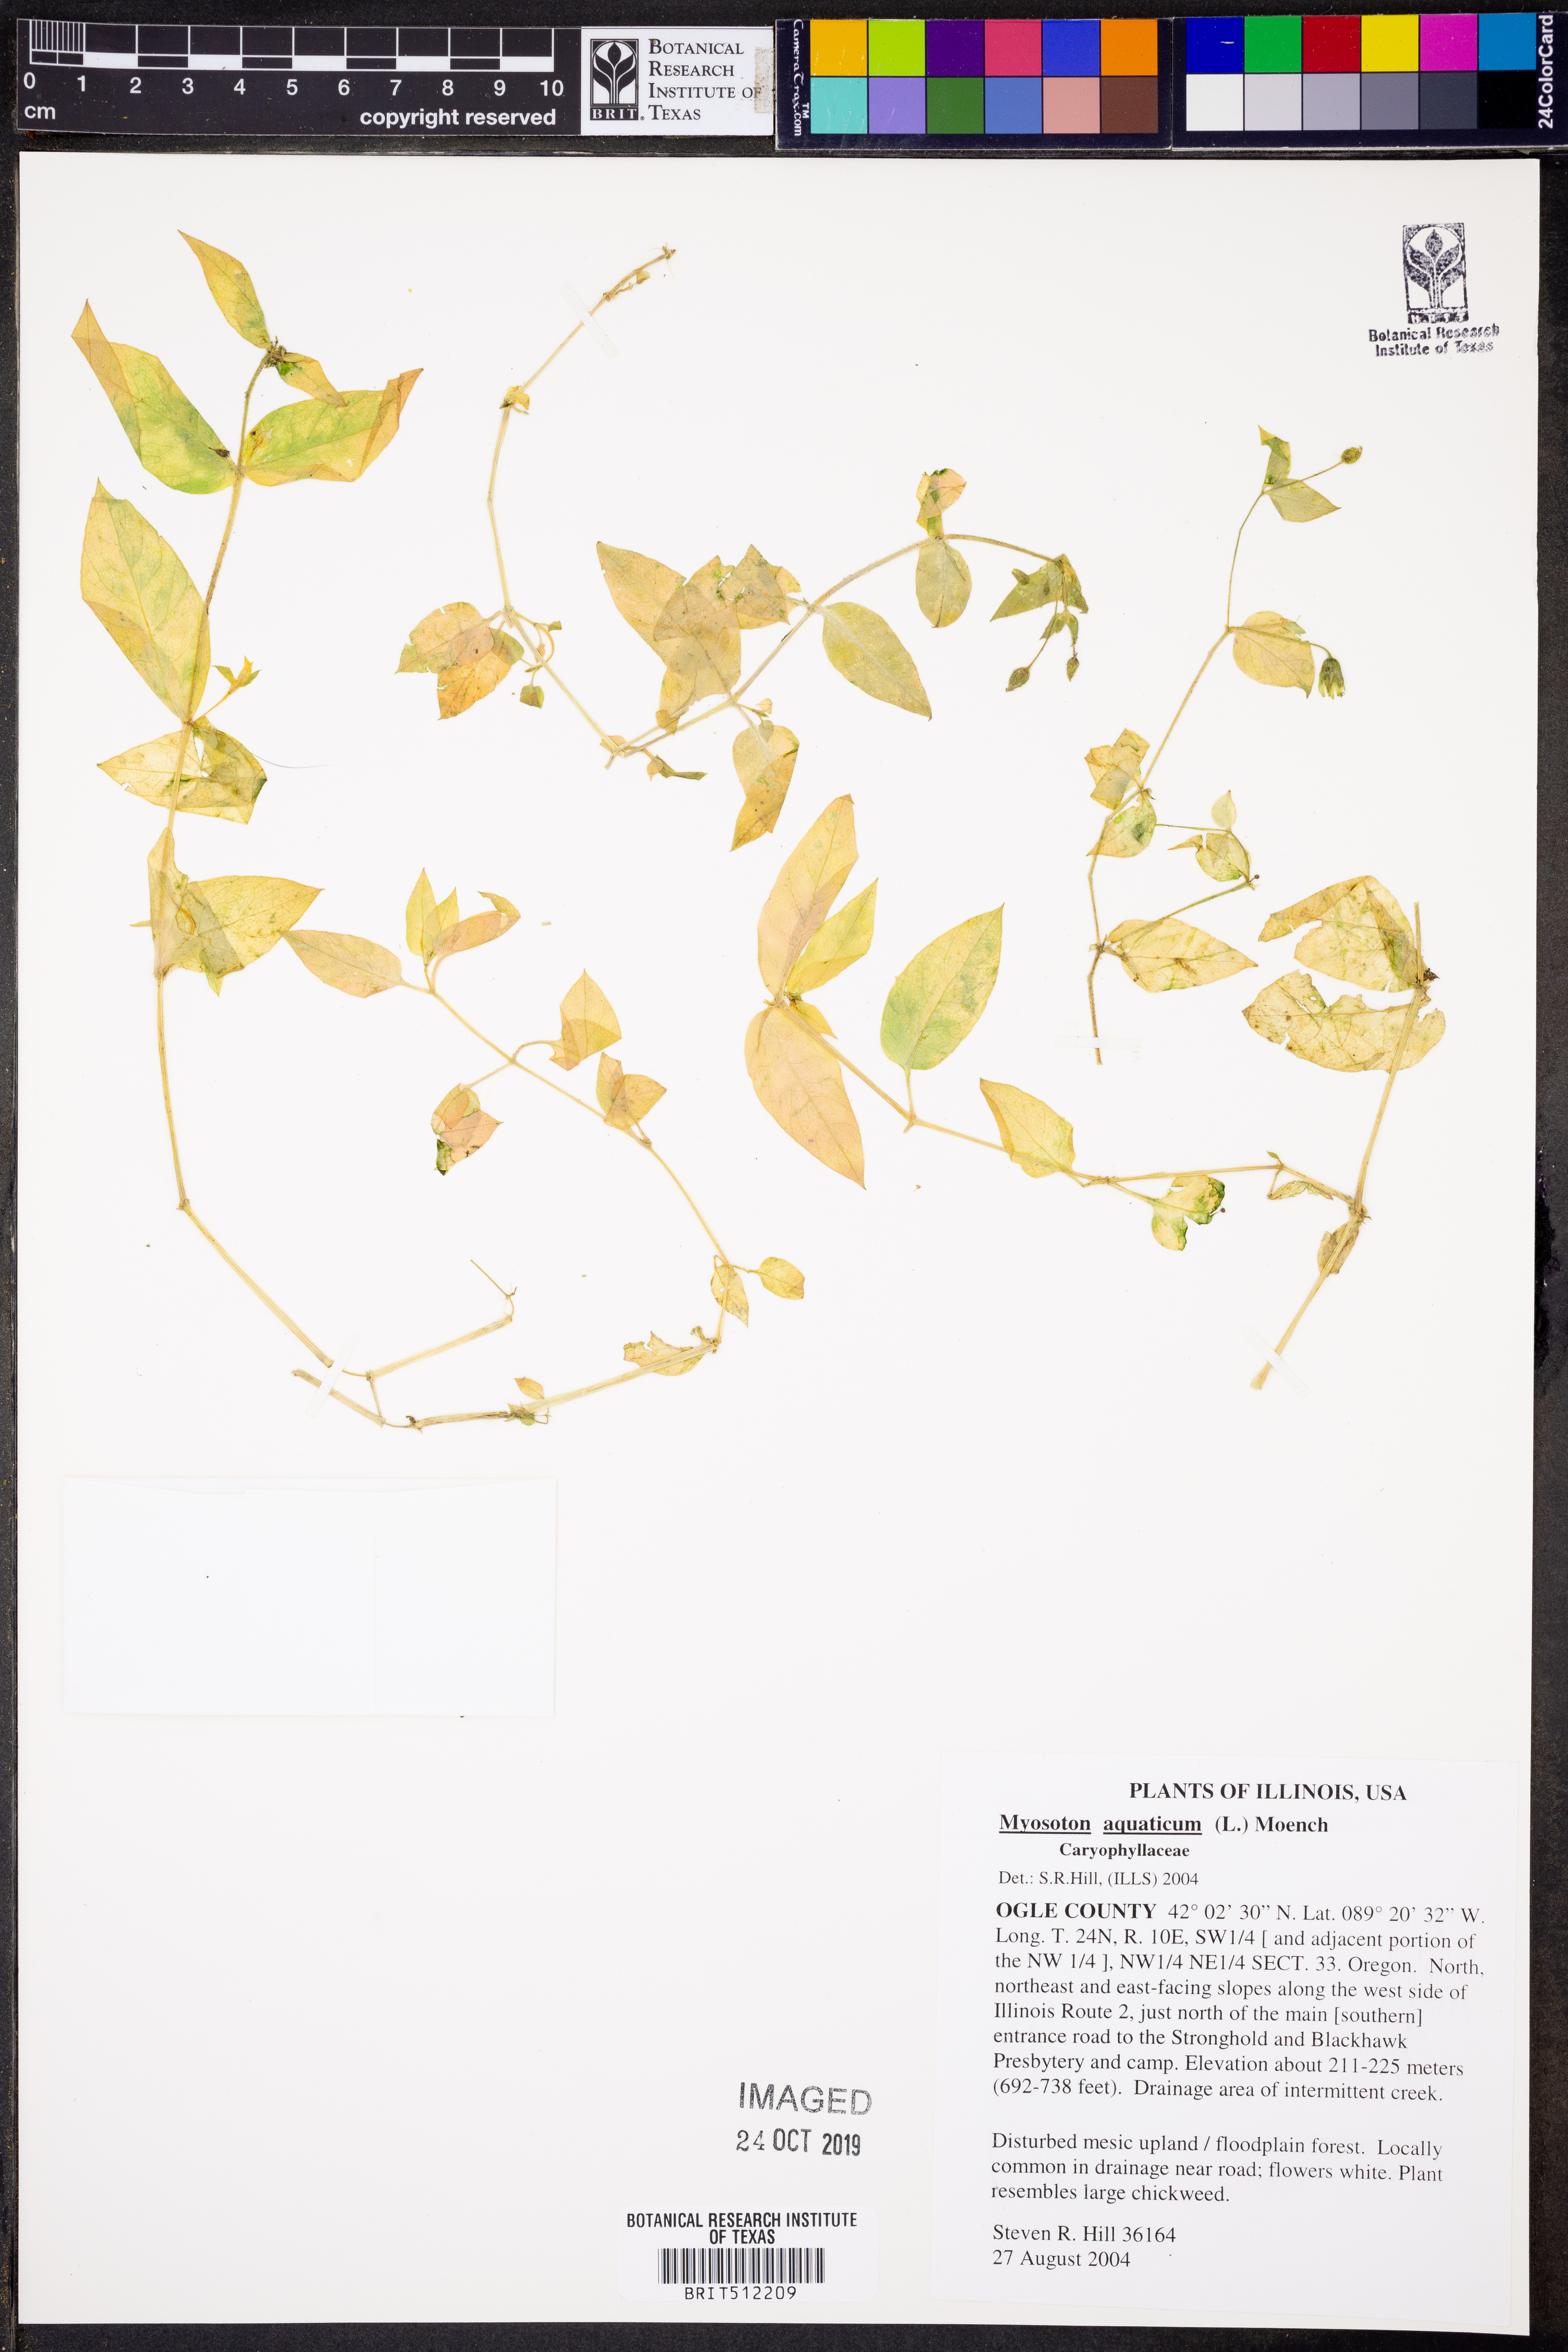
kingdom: Plantae
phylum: Tracheophyta
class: Magnoliopsida
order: Caryophyllales
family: Caryophyllaceae
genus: Stellaria
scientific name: Stellaria aquatica
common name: Water chickweed
